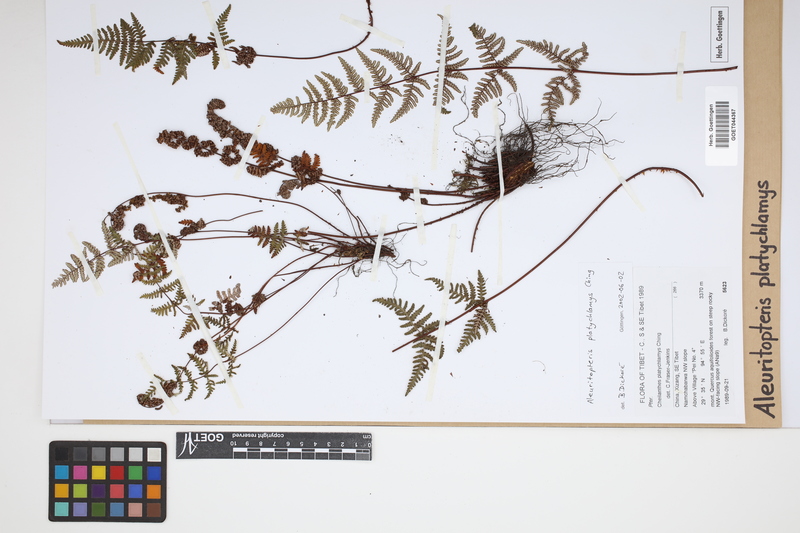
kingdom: Plantae
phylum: Tracheophyta
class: Polypodiopsida
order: Polypodiales
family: Pteridaceae
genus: Aleuritopteris
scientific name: Aleuritopteris grisea
